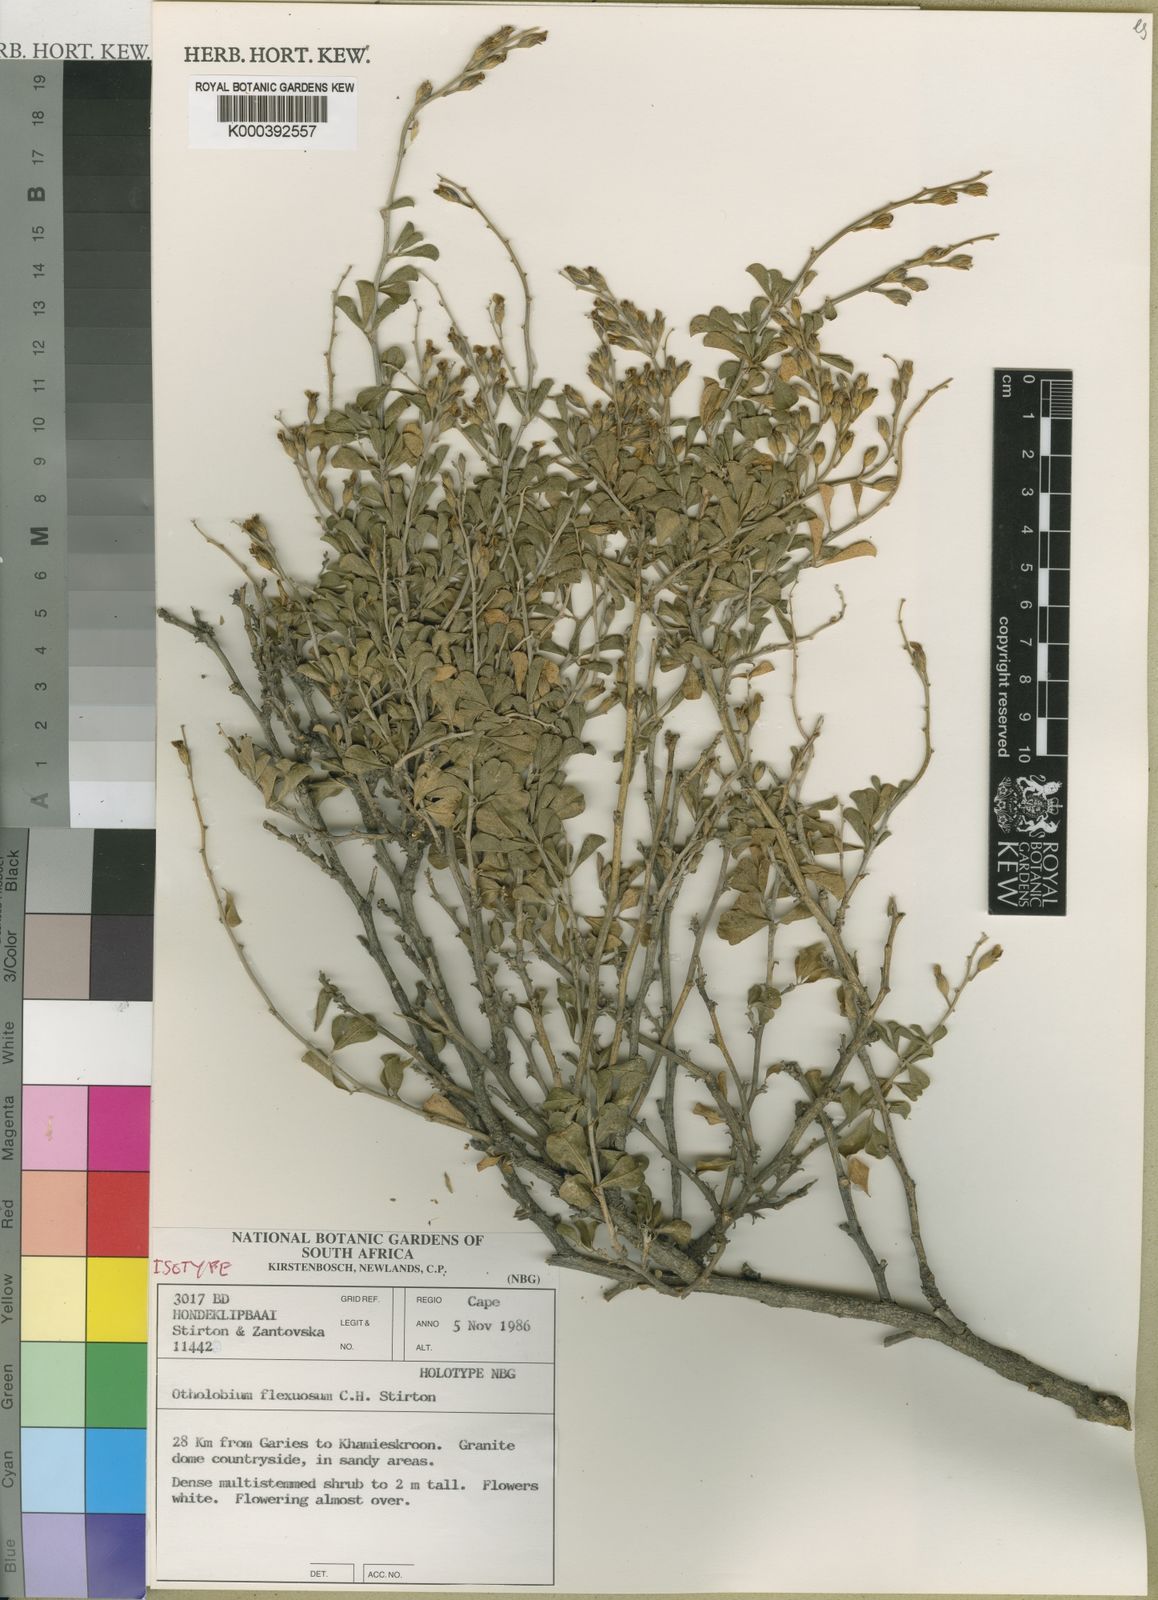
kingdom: Plantae
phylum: Tracheophyta
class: Magnoliopsida
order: Fabales
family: Fabaceae
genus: Psoralea
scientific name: Psoralea flexuosa
